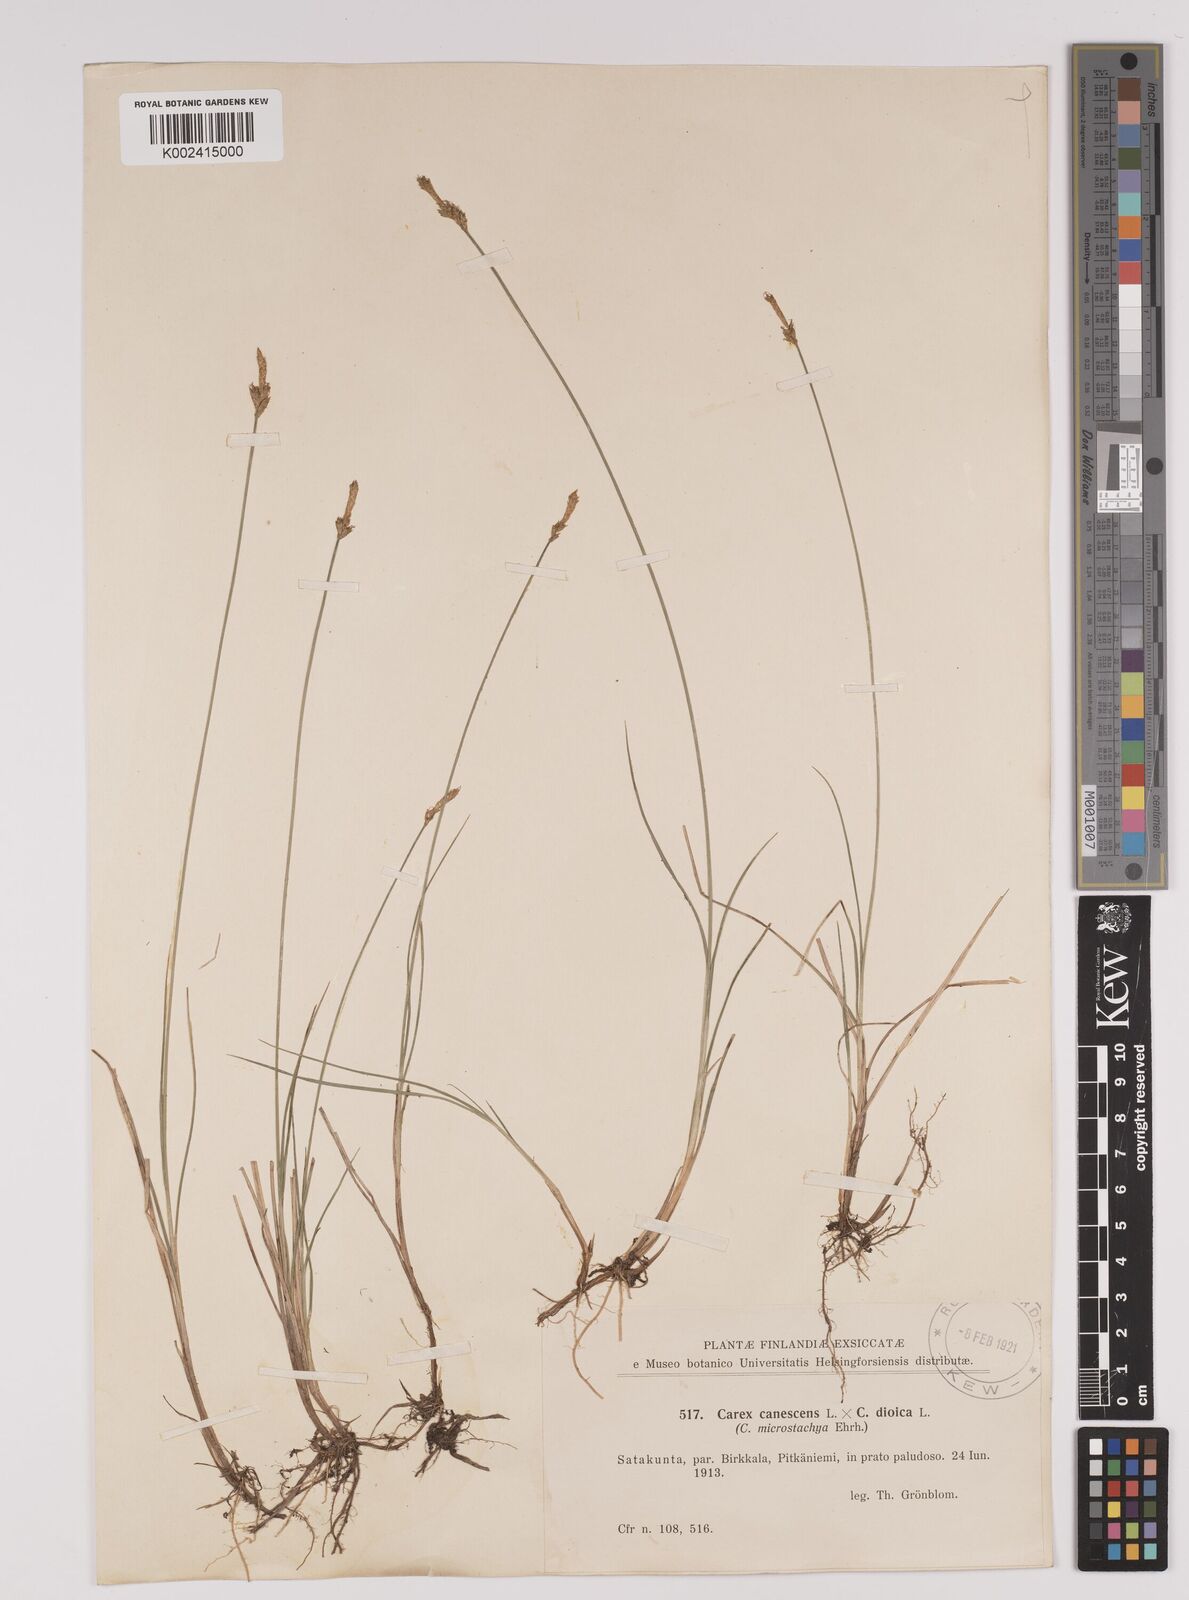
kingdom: Plantae
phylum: Tracheophyta
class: Liliopsida
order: Poales
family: Cyperaceae
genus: Carex
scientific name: Carex dioica
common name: Dioecious sedge
